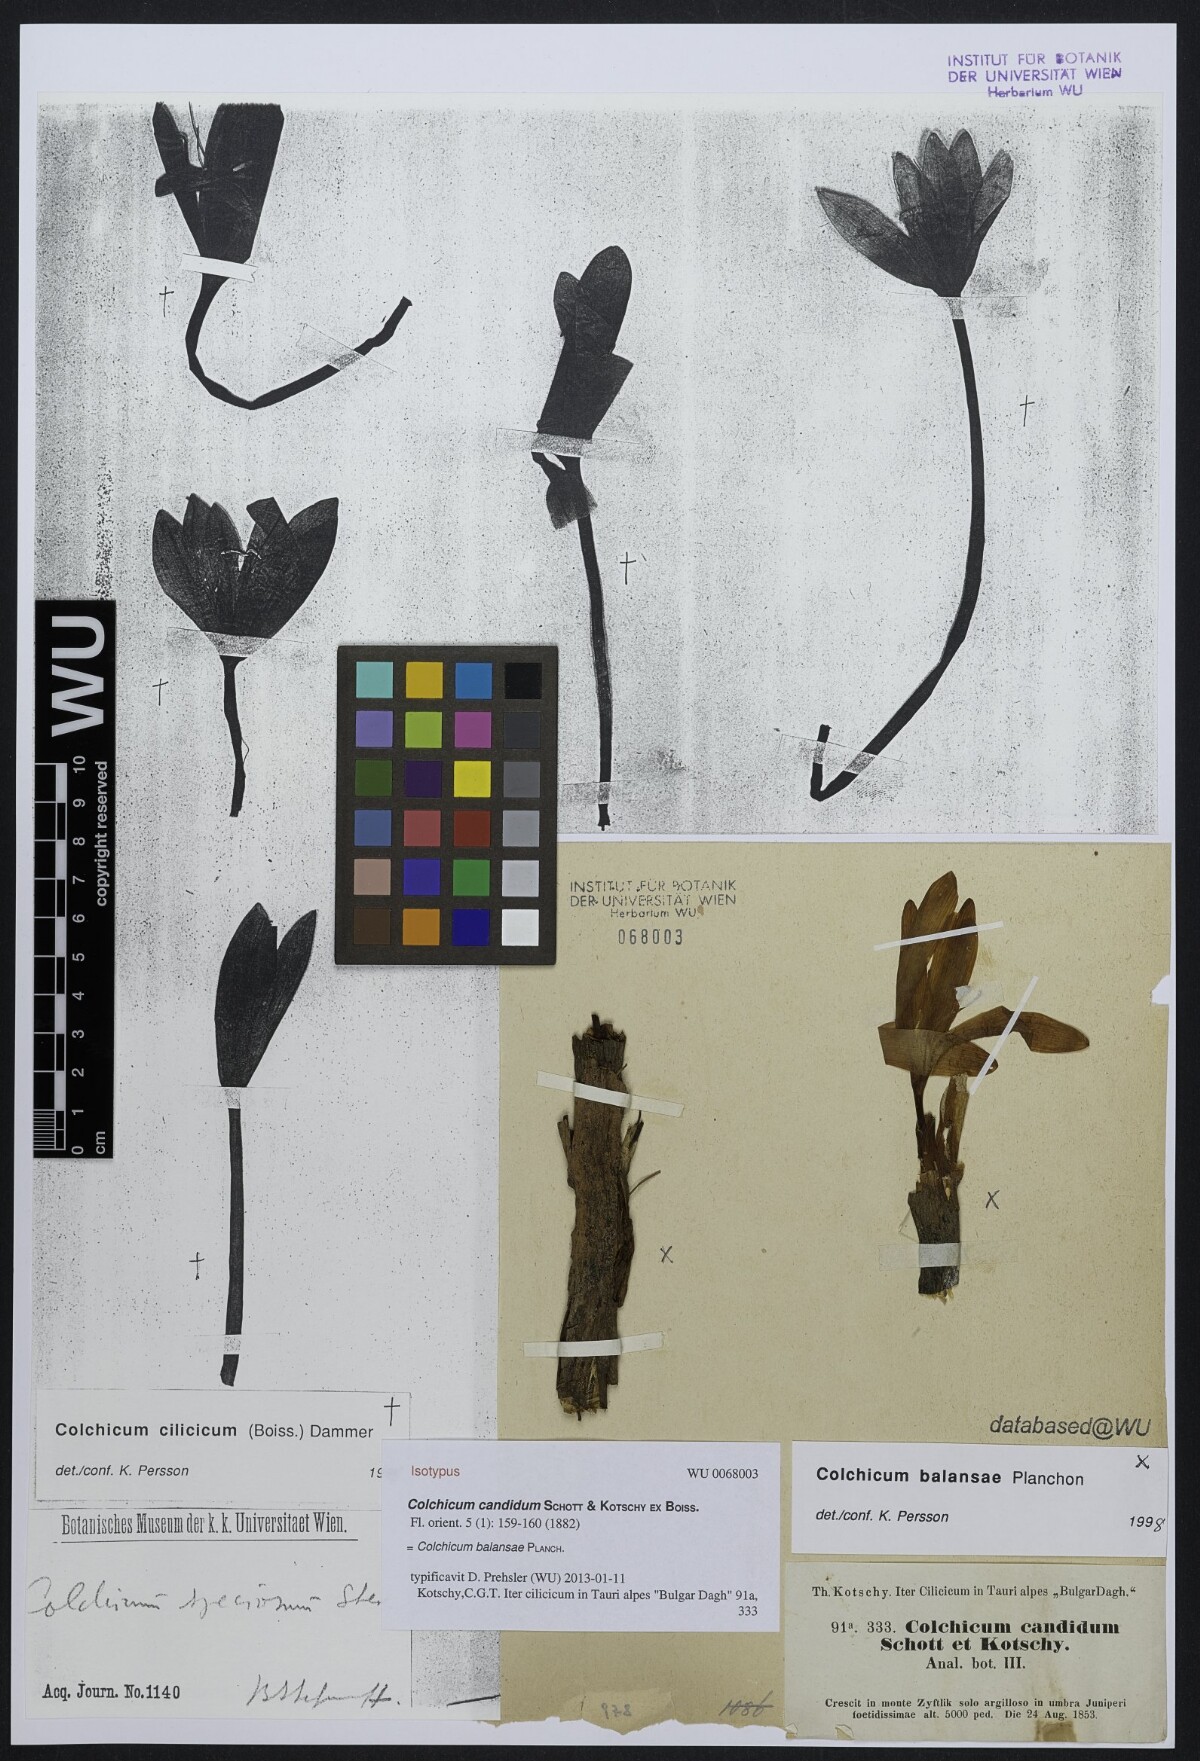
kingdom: Plantae
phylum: Tracheophyta
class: Liliopsida
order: Liliales
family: Colchicaceae
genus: Colchicum
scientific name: Colchicum balansae
